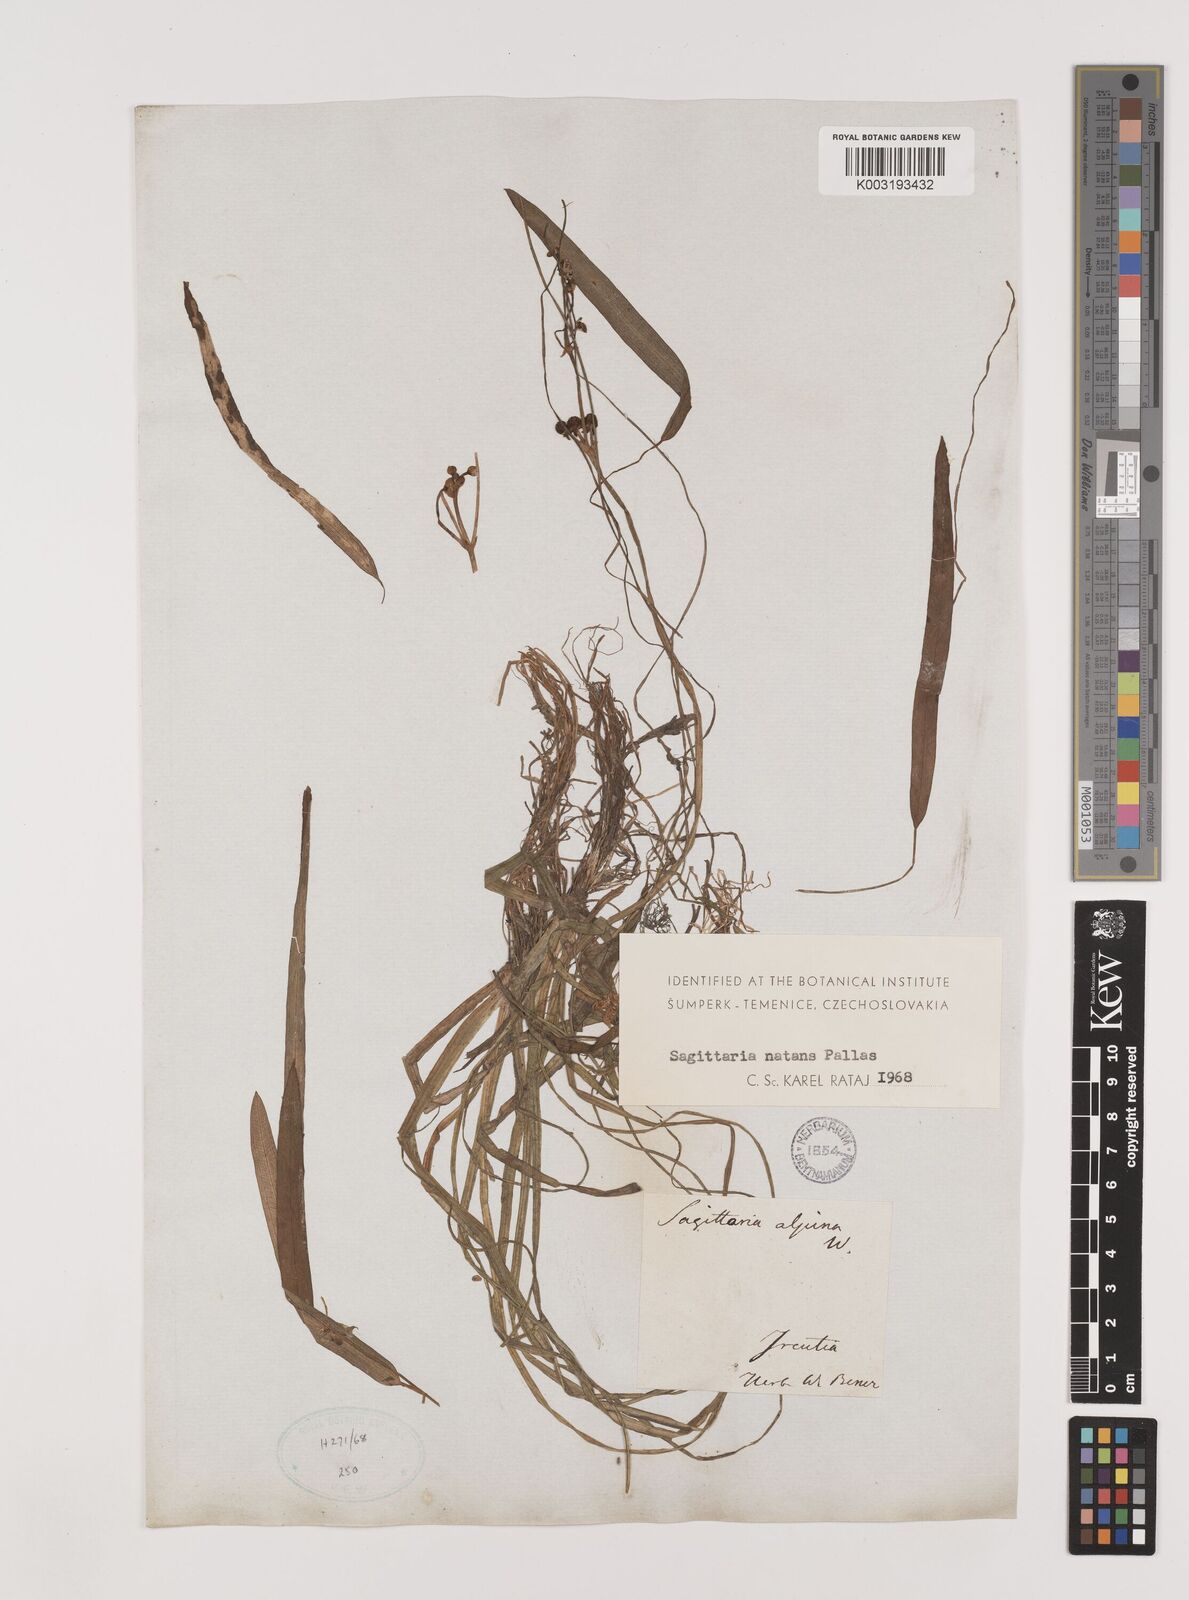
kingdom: Plantae
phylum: Tracheophyta
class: Liliopsida
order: Alismatales
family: Alismataceae
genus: Sagittaria
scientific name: Sagittaria natans
